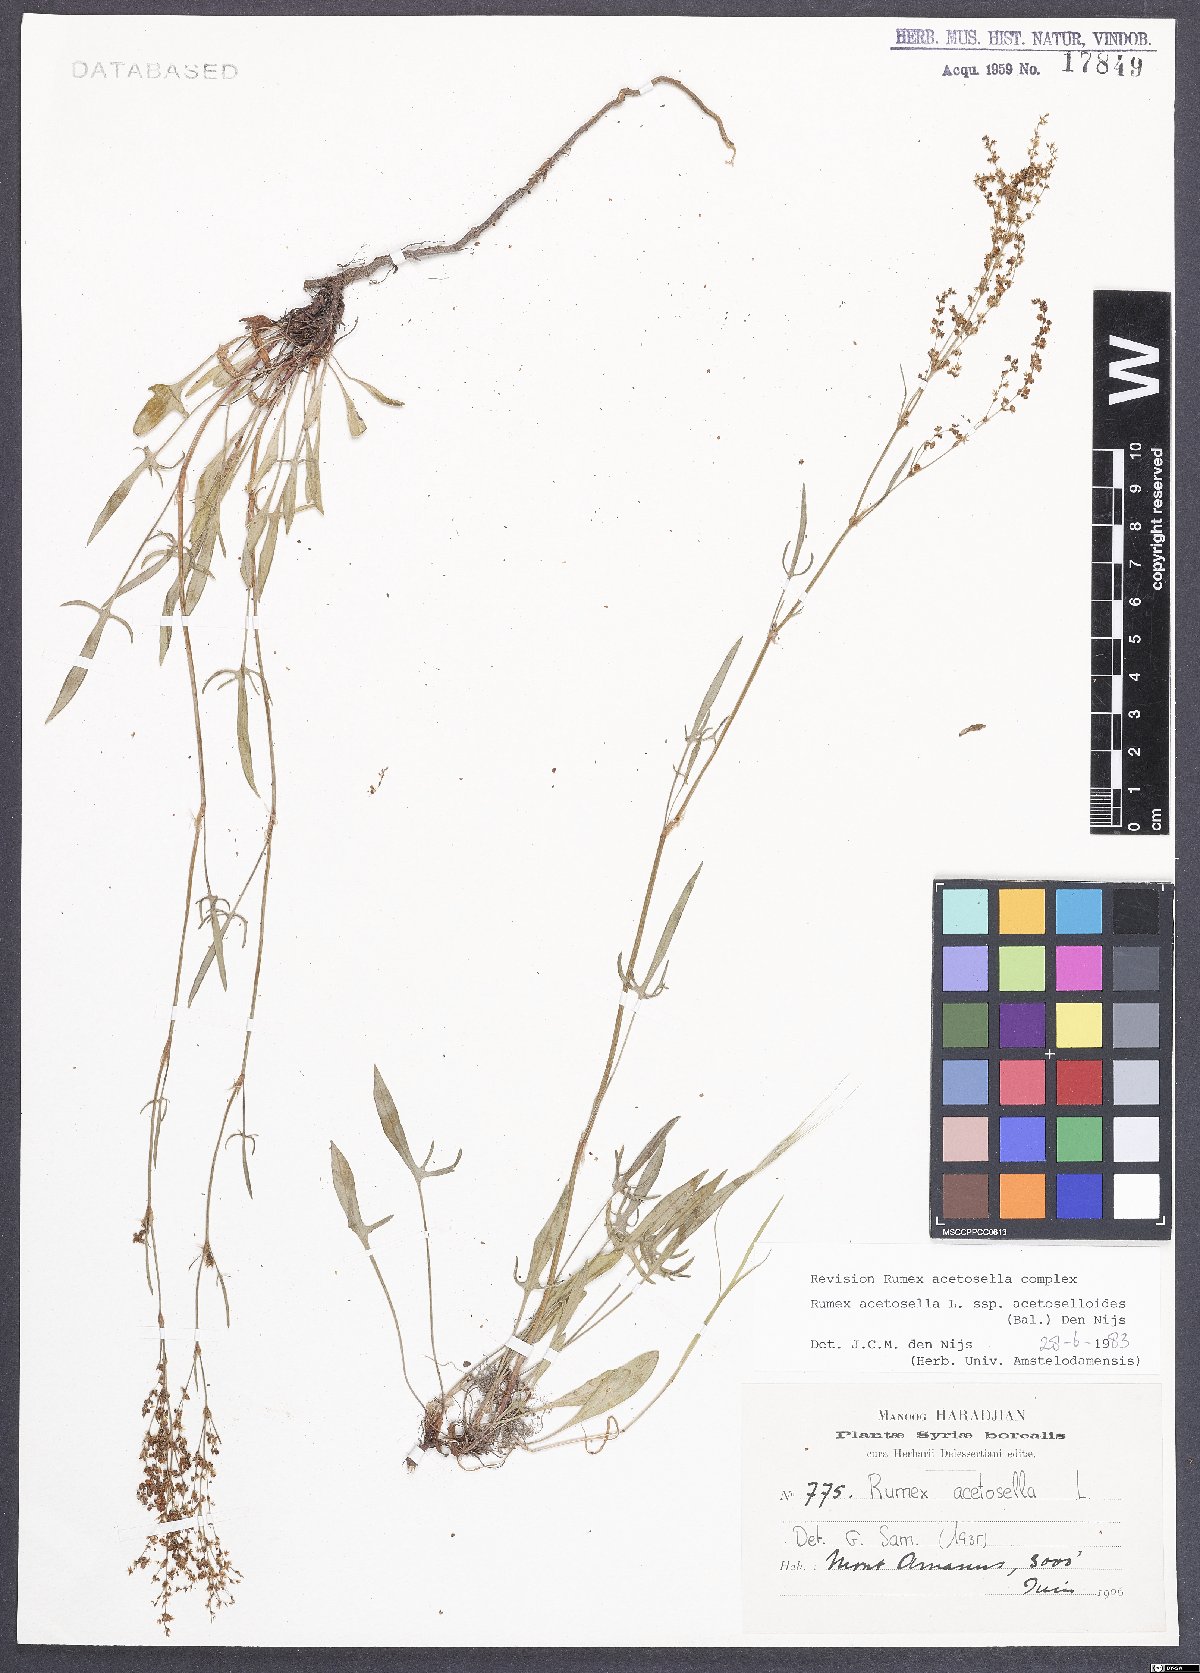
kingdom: Plantae
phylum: Tracheophyta
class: Magnoliopsida
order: Caryophyllales
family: Polygonaceae
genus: Rumex
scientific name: Rumex acetosella
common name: Common sheep sorrel
